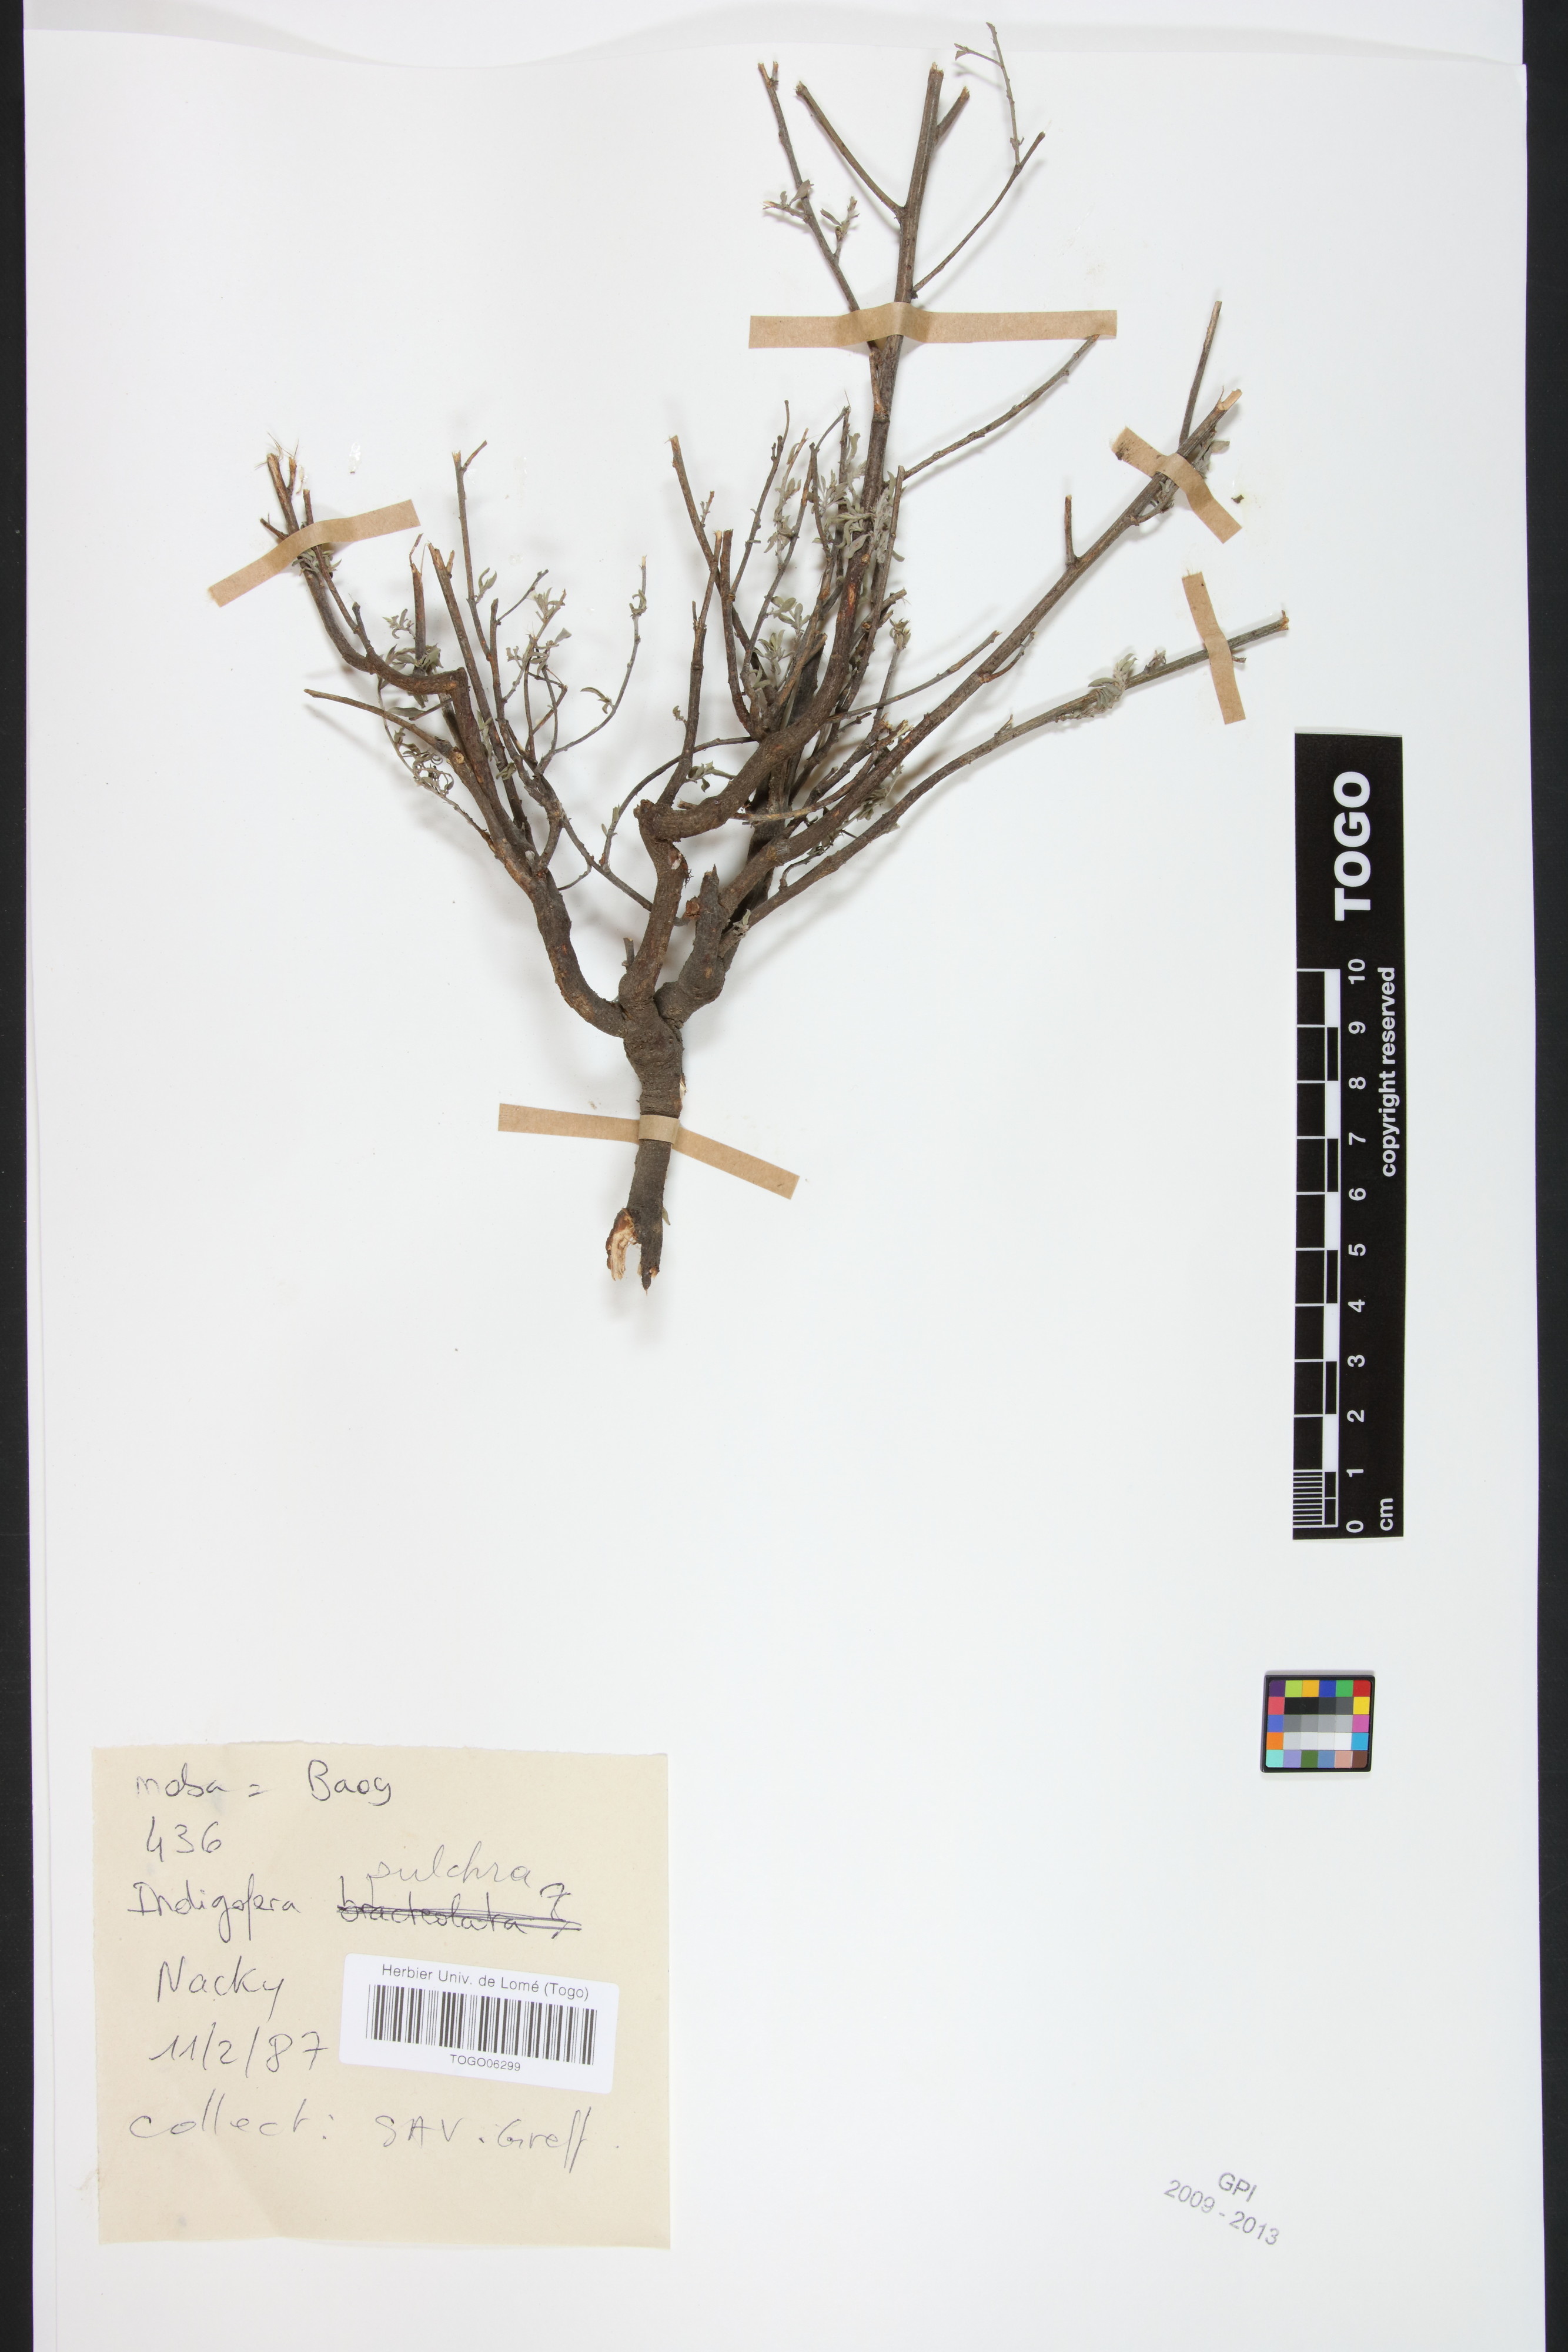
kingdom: Plantae
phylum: Tracheophyta
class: Magnoliopsida
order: Fabales
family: Fabaceae
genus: Indigofera
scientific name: Indigofera pulchra
